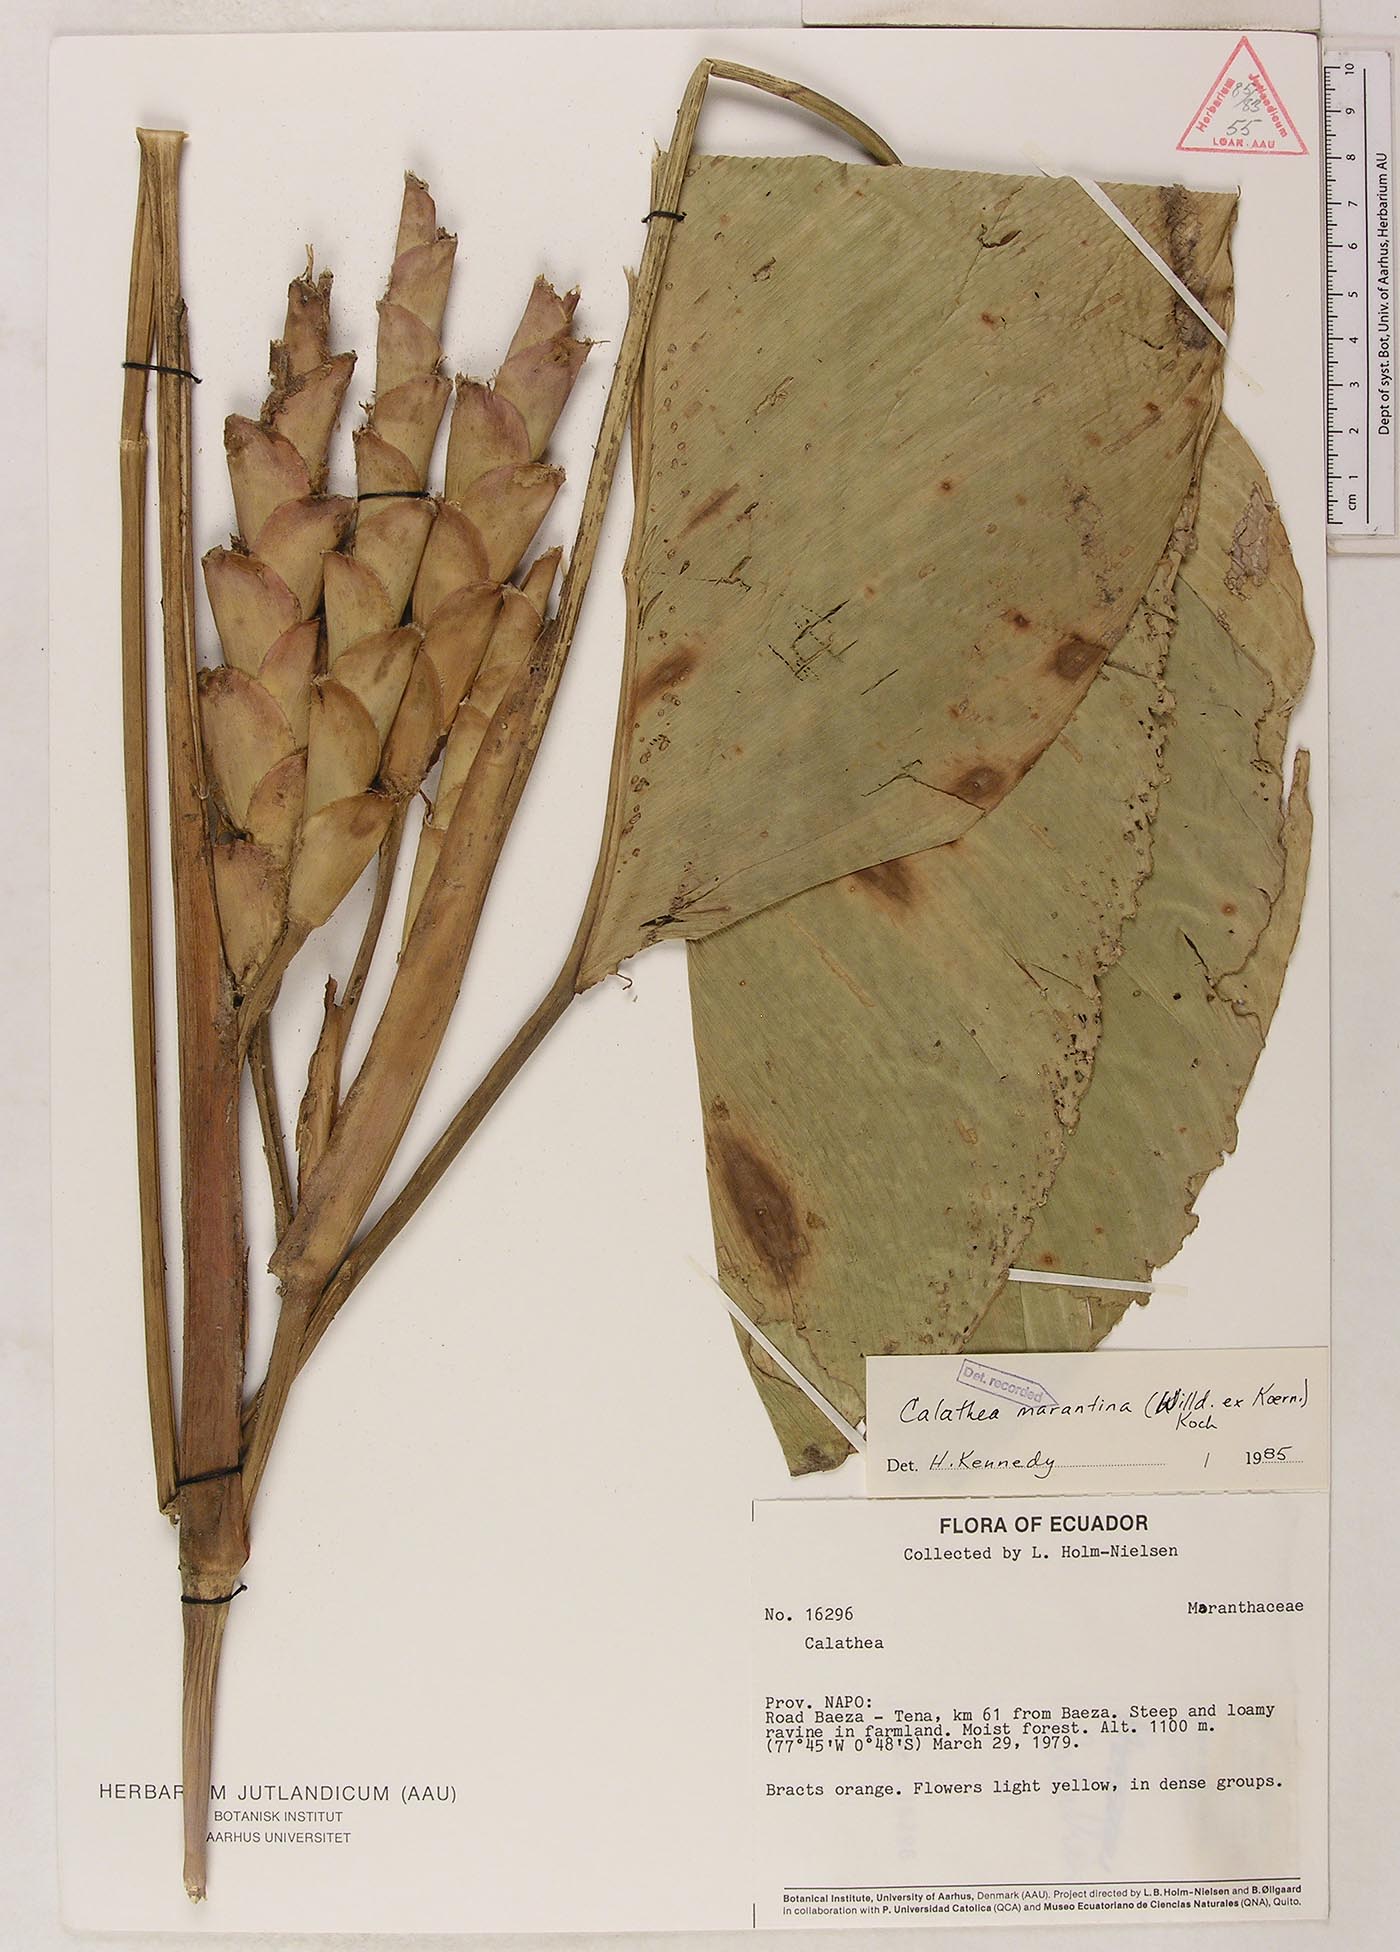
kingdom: Plantae
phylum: Tracheophyta
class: Liliopsida
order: Zingiberales
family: Marantaceae
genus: Calathea
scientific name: Calathea marantina
